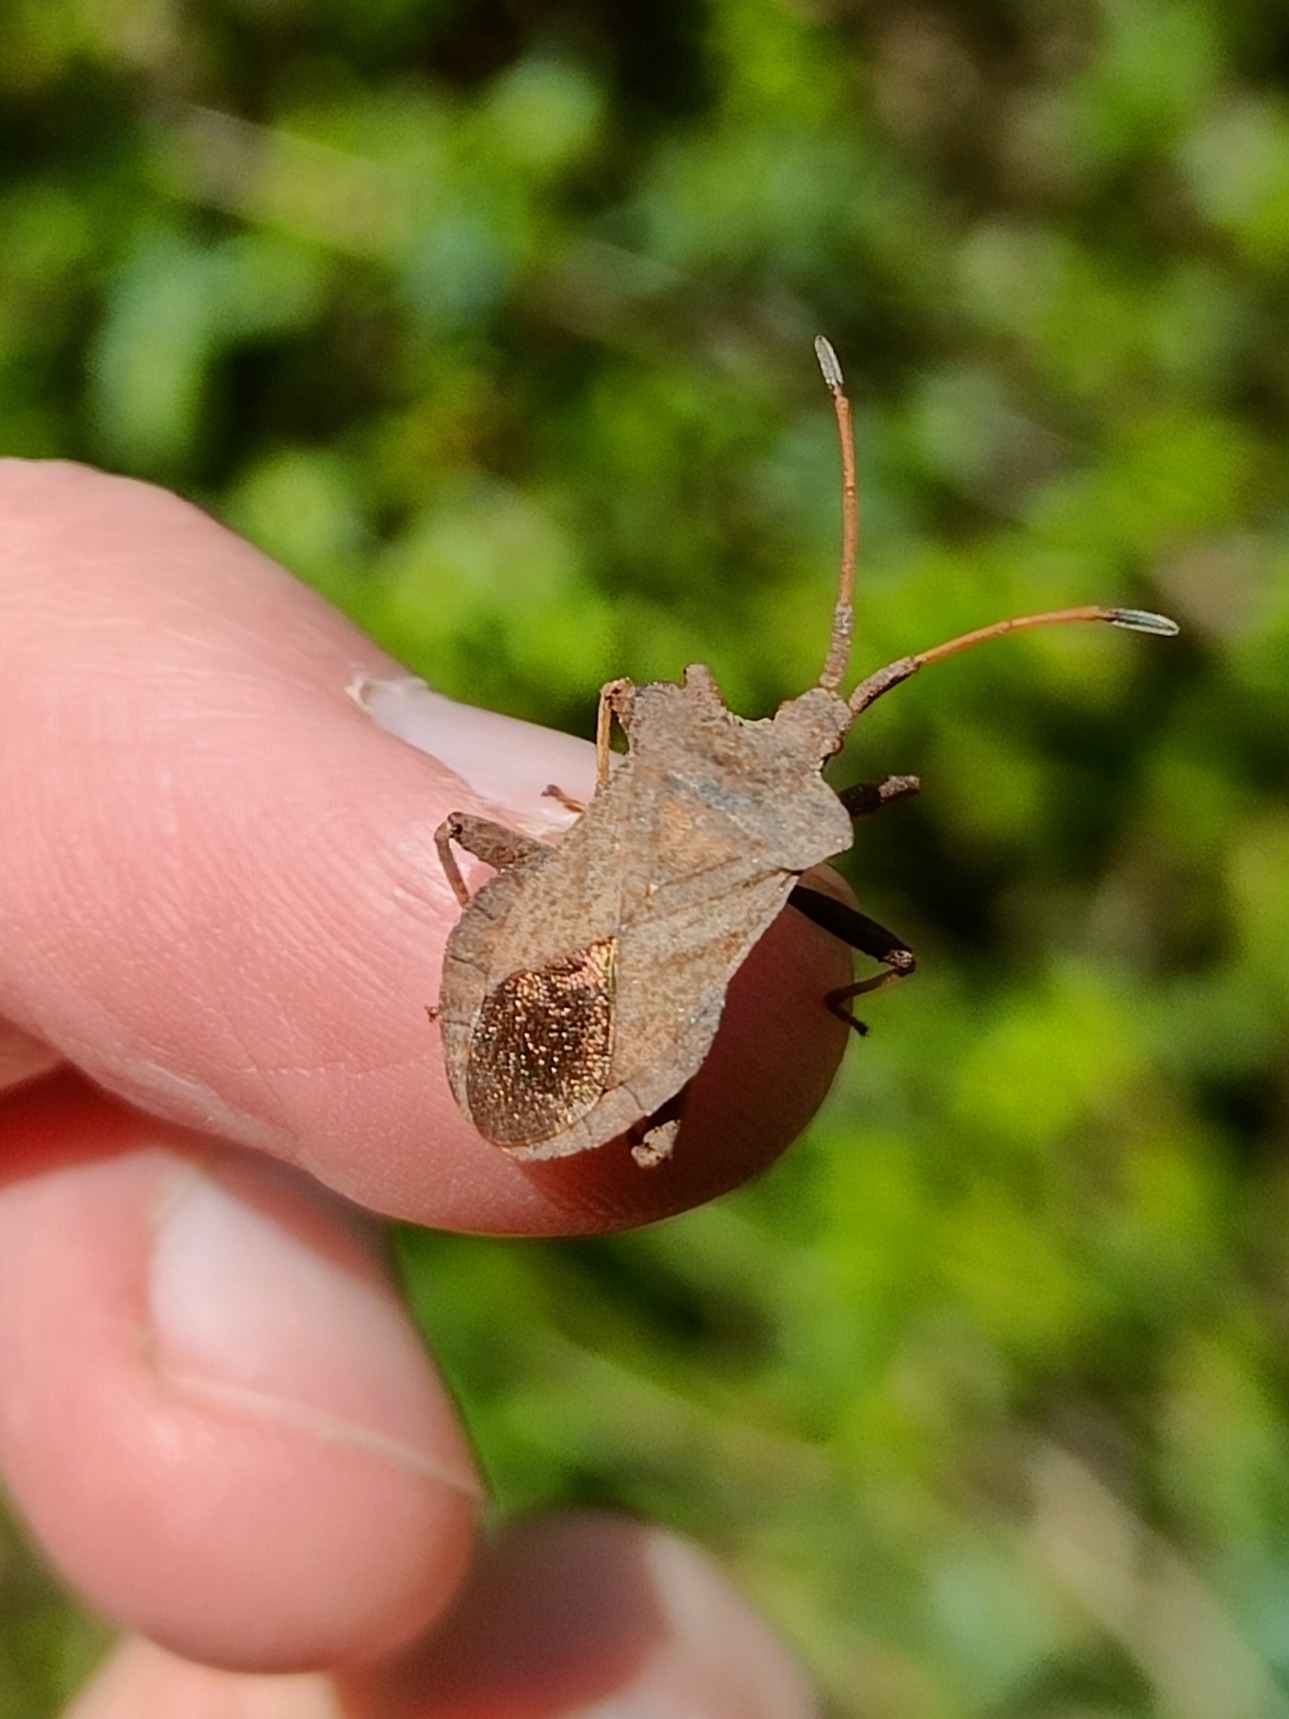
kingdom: Animalia
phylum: Arthropoda
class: Insecta
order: Hemiptera
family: Coreidae
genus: Coreus
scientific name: Coreus marginatus
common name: Skræppetæge
